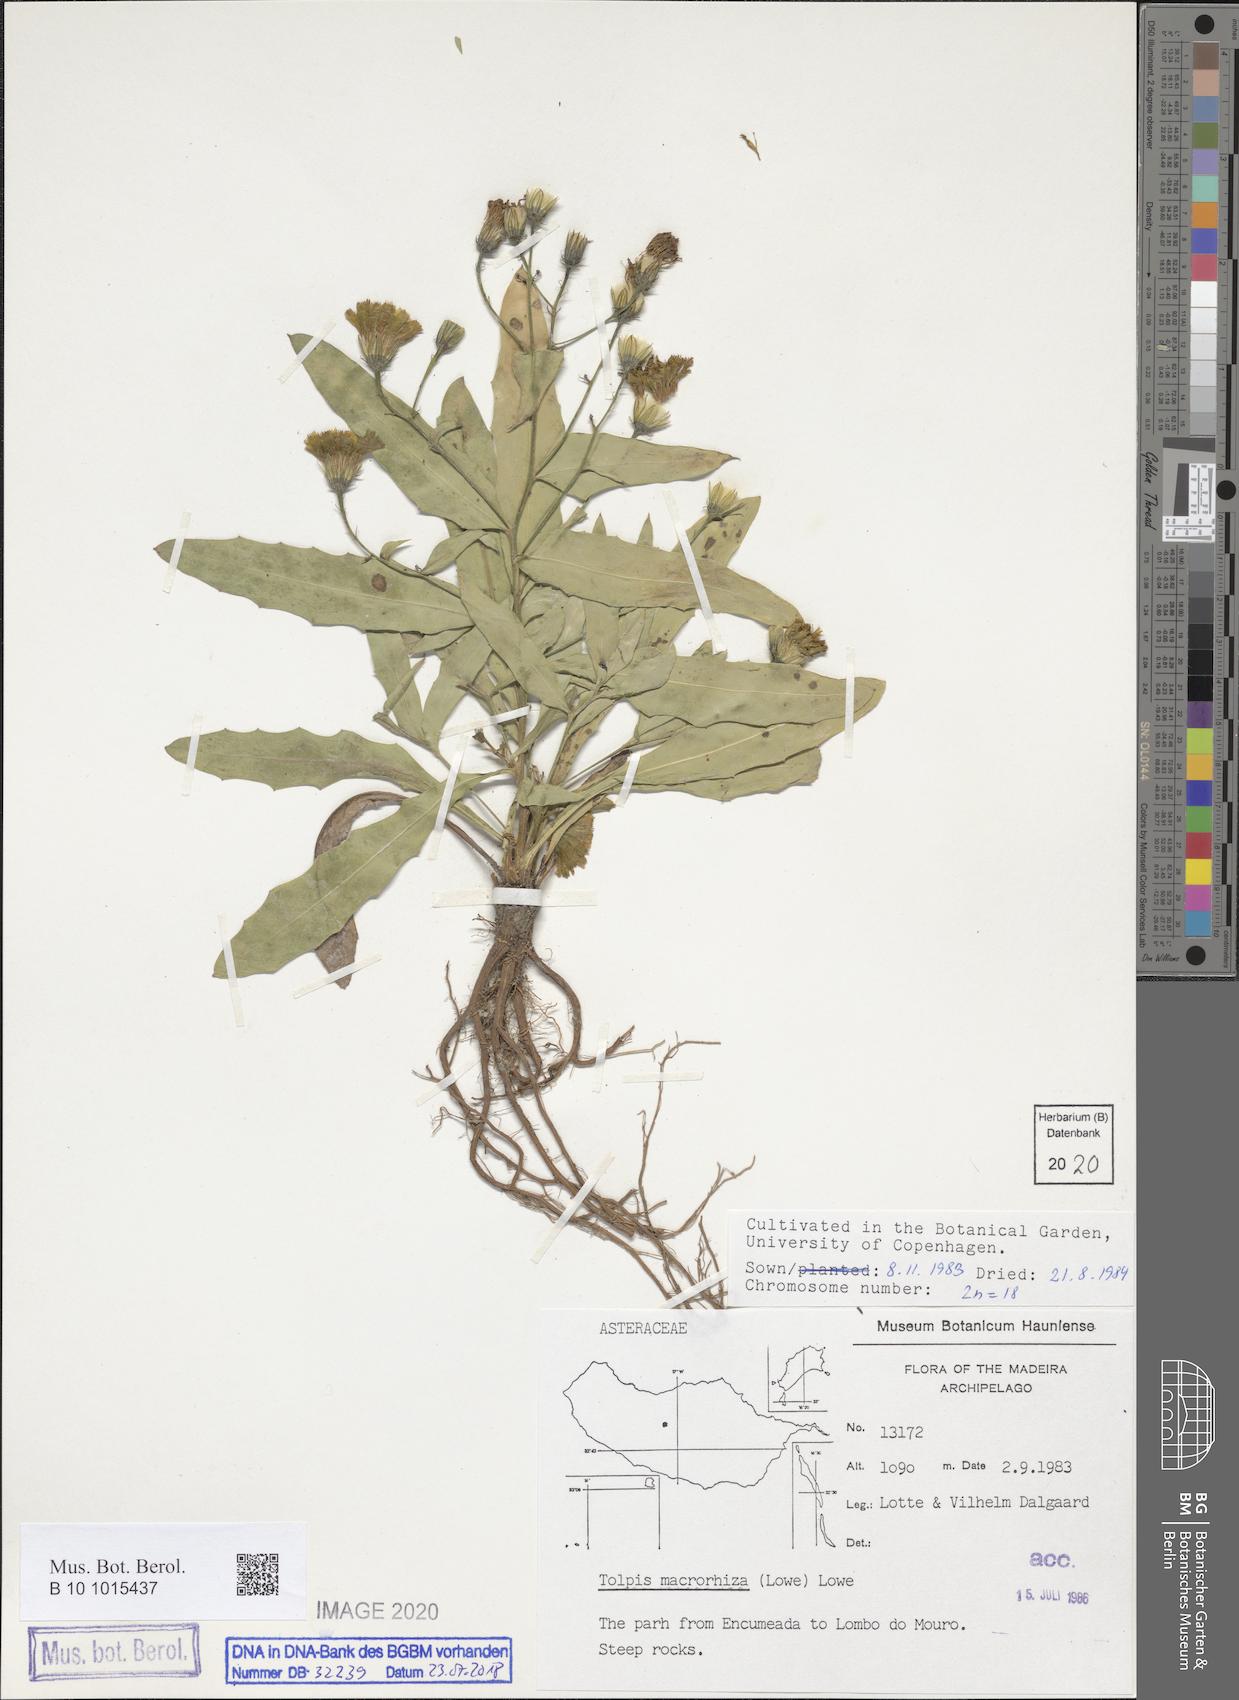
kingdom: Plantae
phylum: Tracheophyta
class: Magnoliopsida
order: Asterales
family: Asteraceae
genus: Tolpis
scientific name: Tolpis macrorhiza
